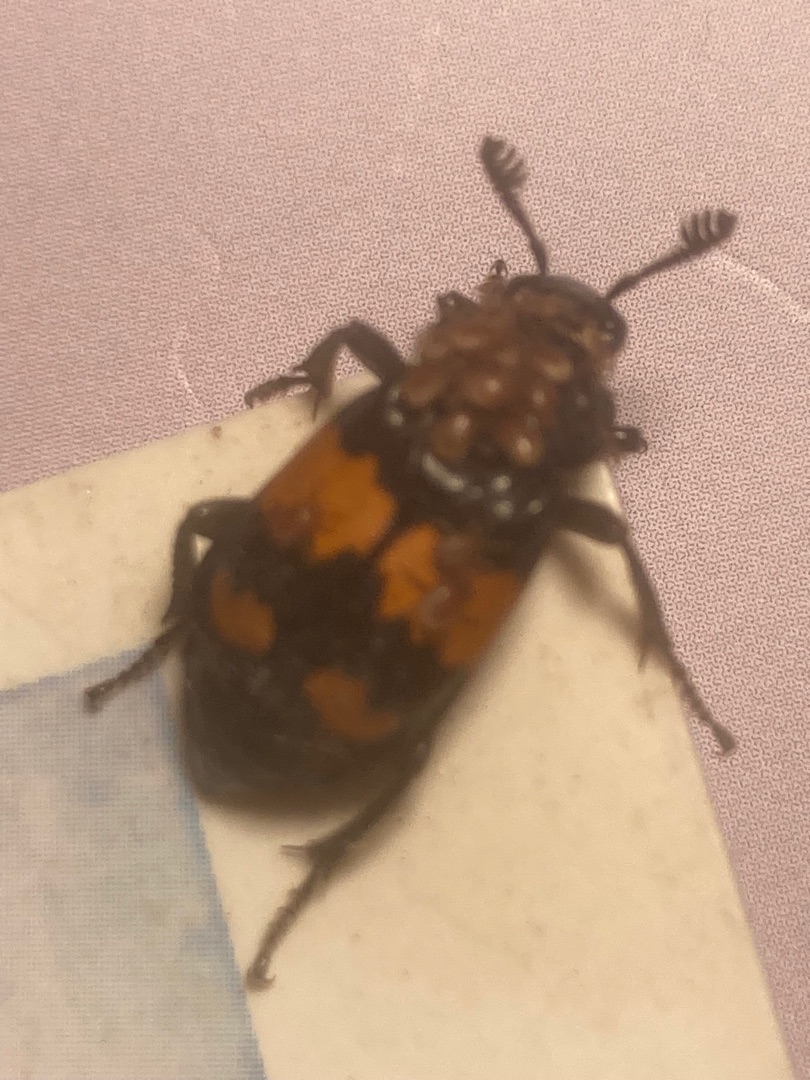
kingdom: Animalia
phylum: Arthropoda
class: Insecta
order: Coleoptera
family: Staphylinidae
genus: Nicrophorus
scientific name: Nicrophorus vespilloides
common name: Sortkøllet ådselgraver
